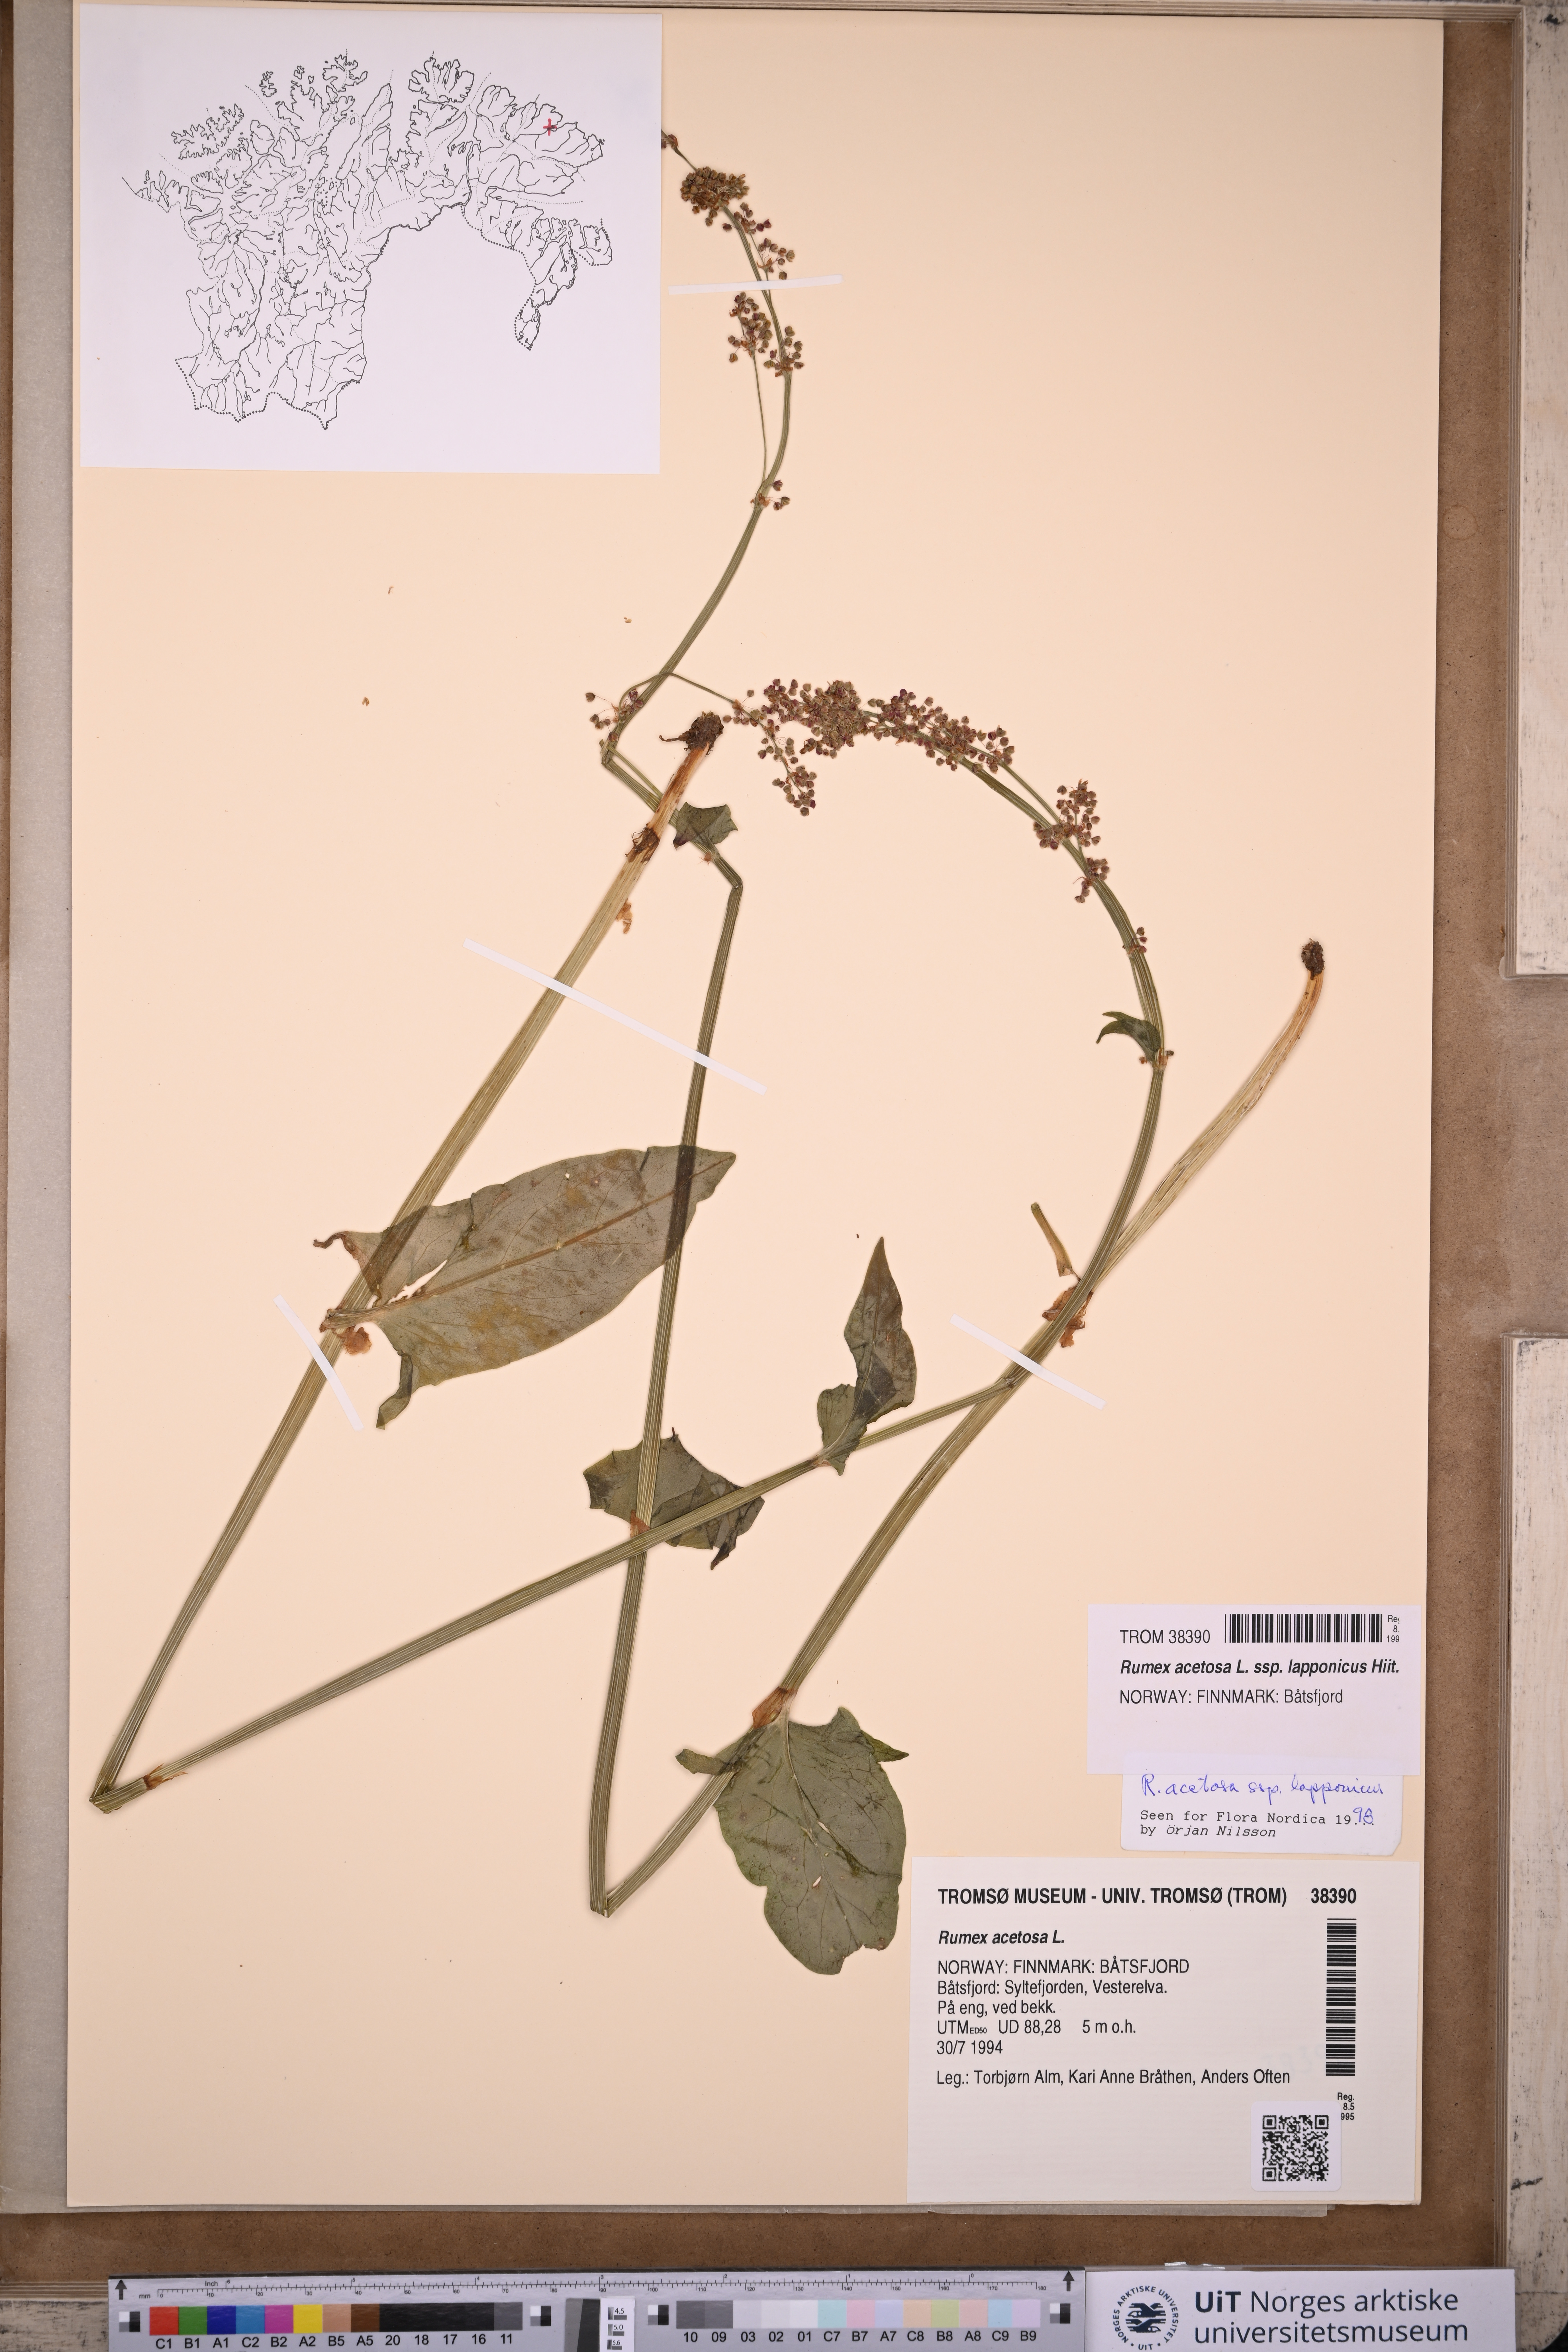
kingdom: Plantae
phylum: Tracheophyta
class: Magnoliopsida
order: Caryophyllales
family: Polygonaceae
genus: Rumex
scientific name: Rumex lapponicus
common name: Lapland mountain sorrel
